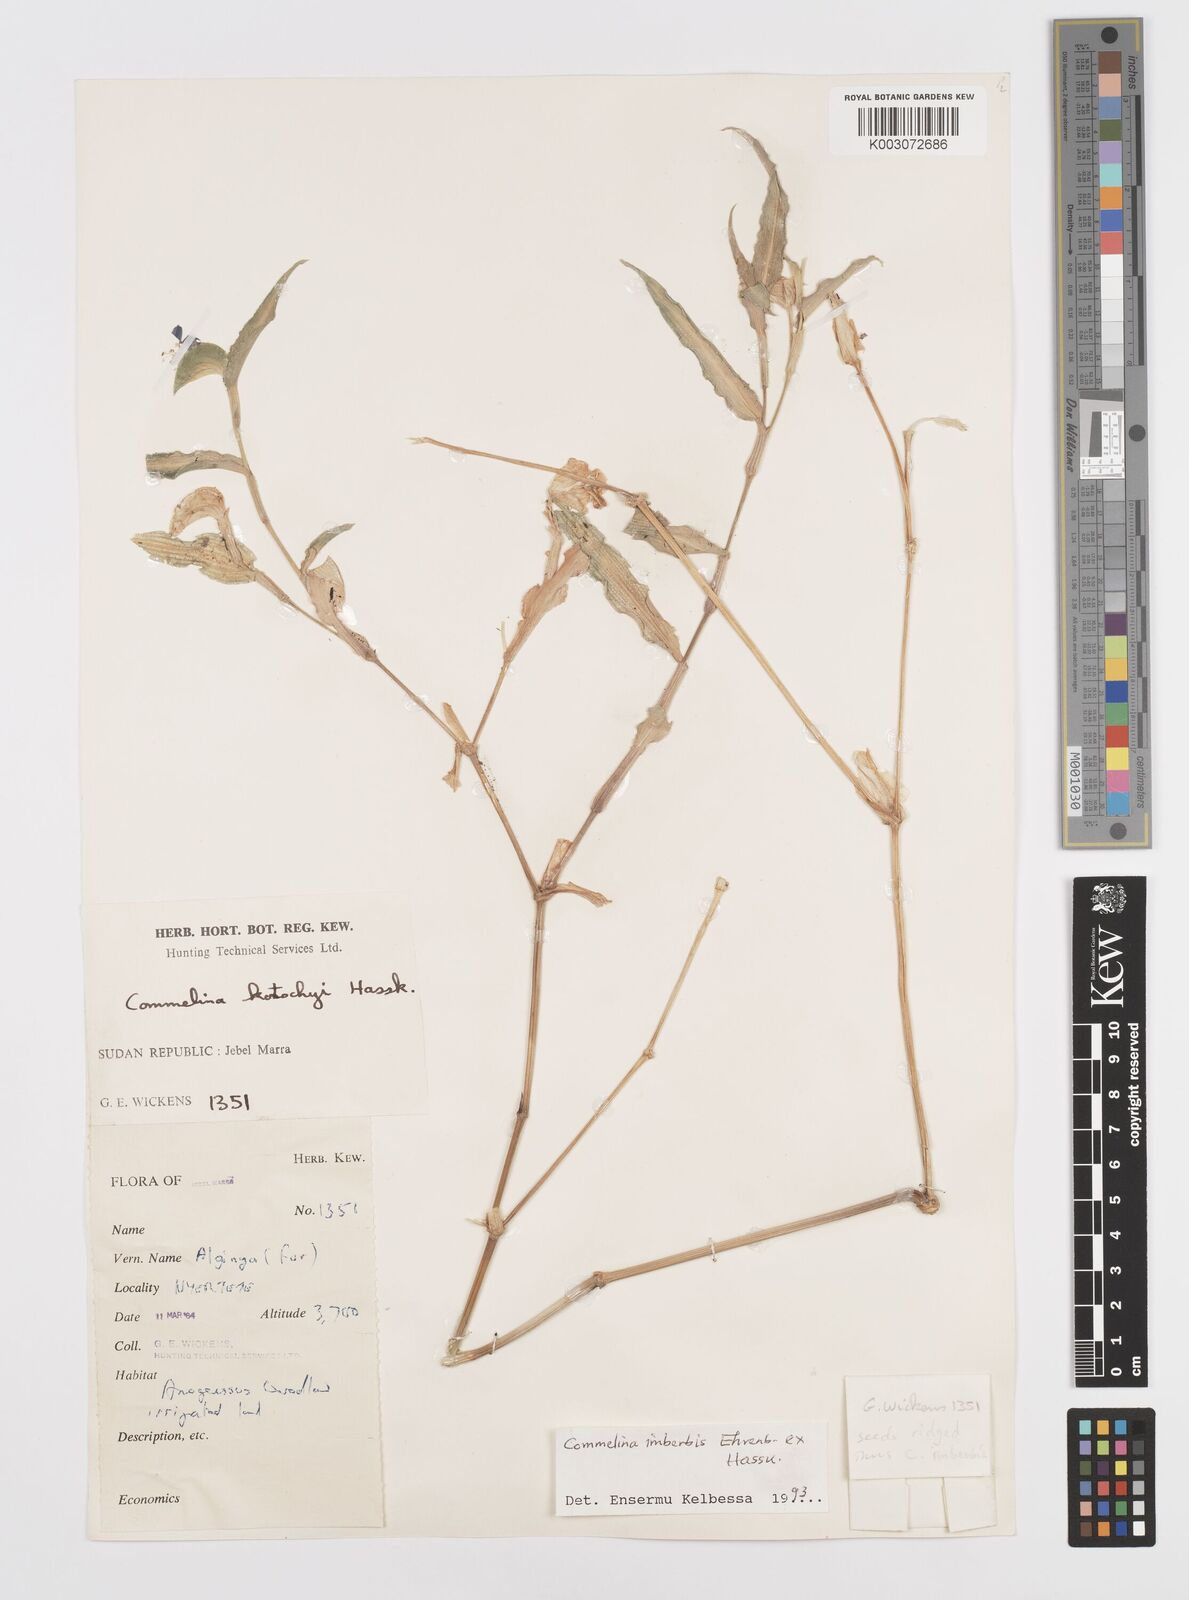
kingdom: Plantae
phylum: Tracheophyta
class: Liliopsida
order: Commelinales
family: Commelinaceae
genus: Commelina
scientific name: Commelina imberbis
